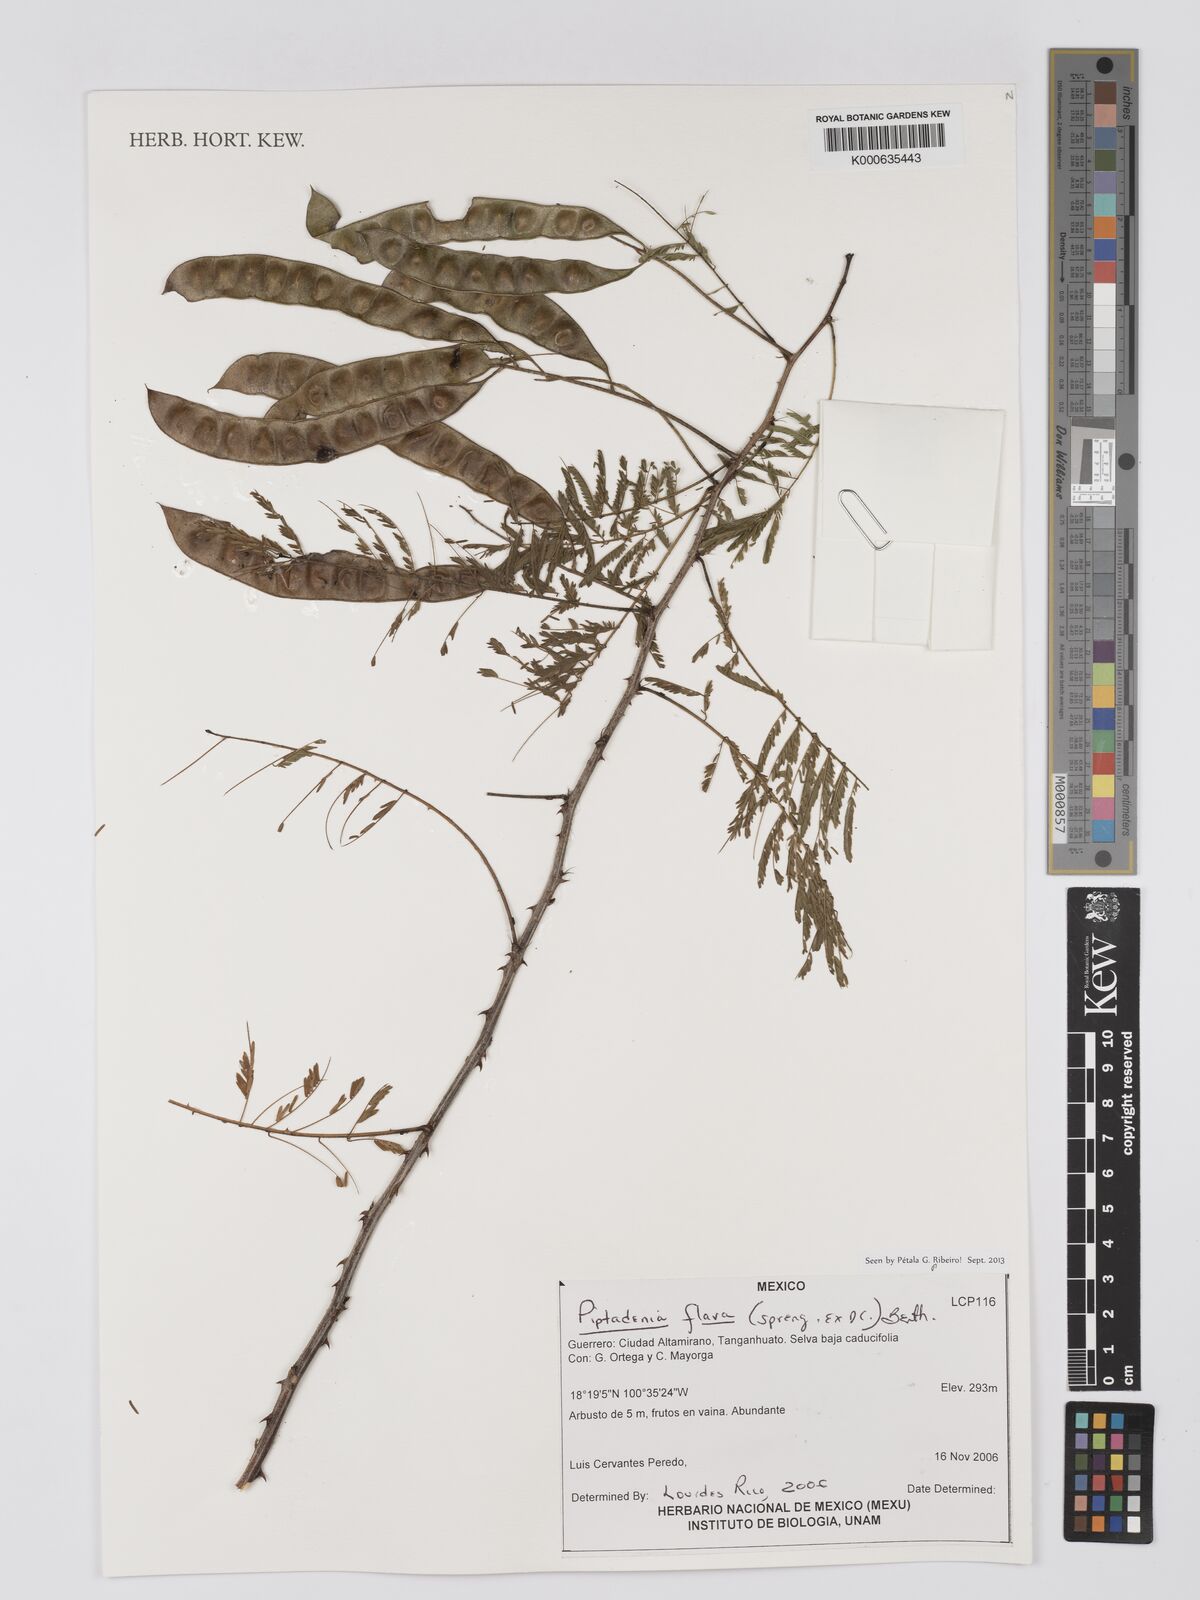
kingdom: Plantae
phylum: Tracheophyta
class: Magnoliopsida
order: Fabales
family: Fabaceae
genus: Piptadenia
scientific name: Piptadenia retusa
